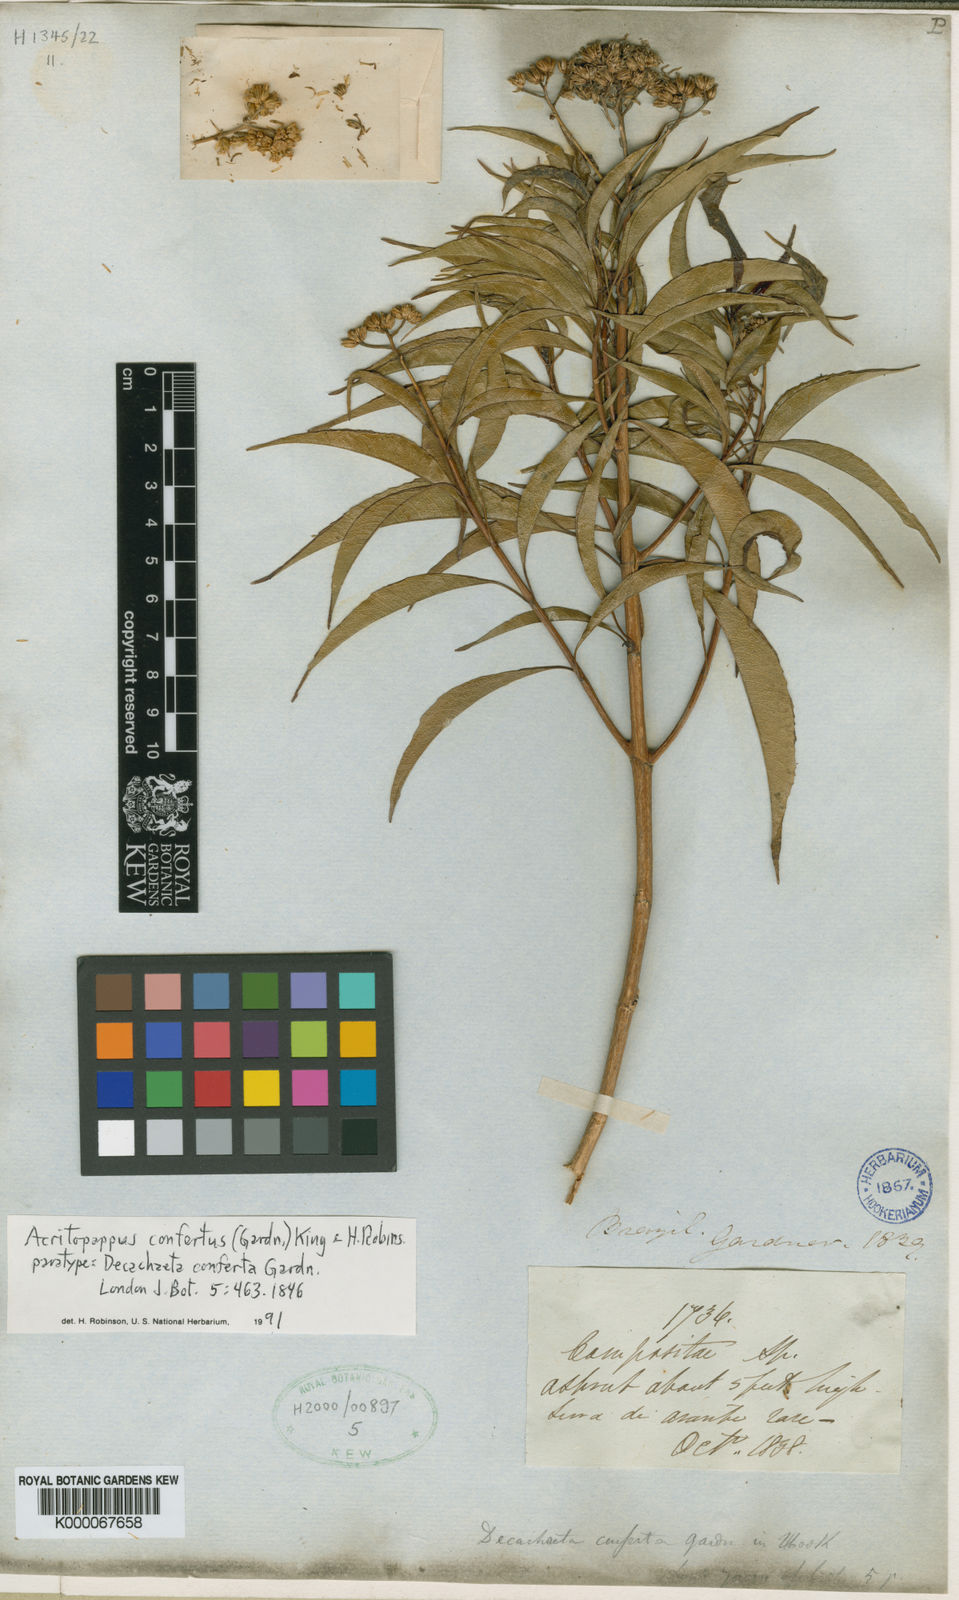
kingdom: Plantae
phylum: Tracheophyta
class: Magnoliopsida
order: Asterales
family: Asteraceae
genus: Acritopappus
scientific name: Acritopappus confertus
